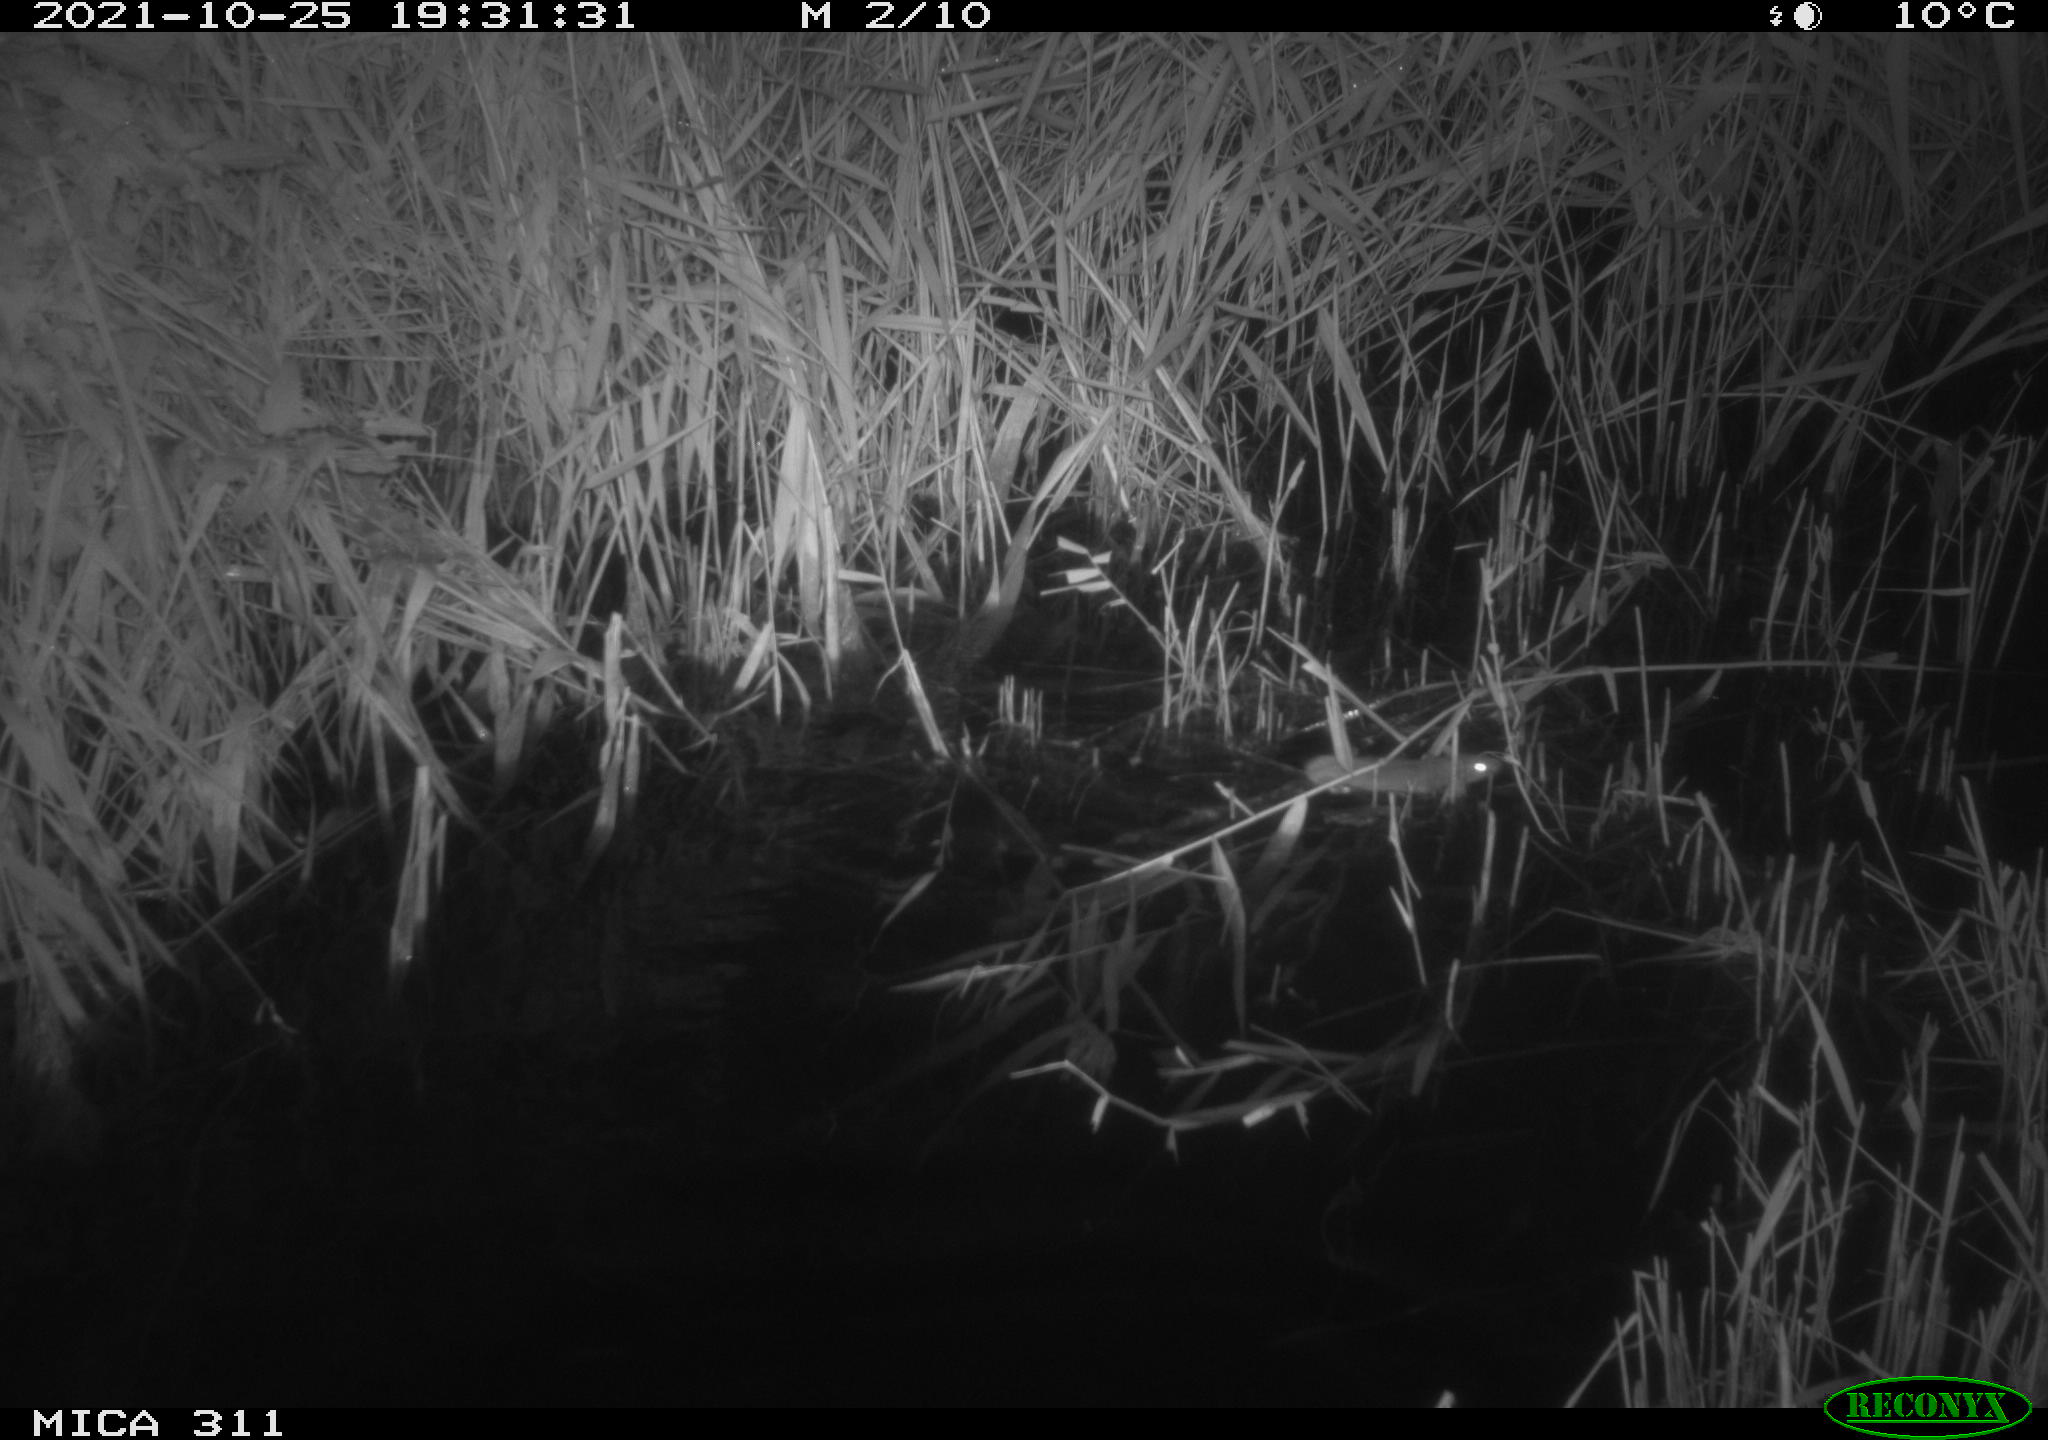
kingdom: Animalia
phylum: Chordata
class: Mammalia
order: Rodentia
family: Muridae
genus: Rattus
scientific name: Rattus norvegicus
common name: Brown rat
